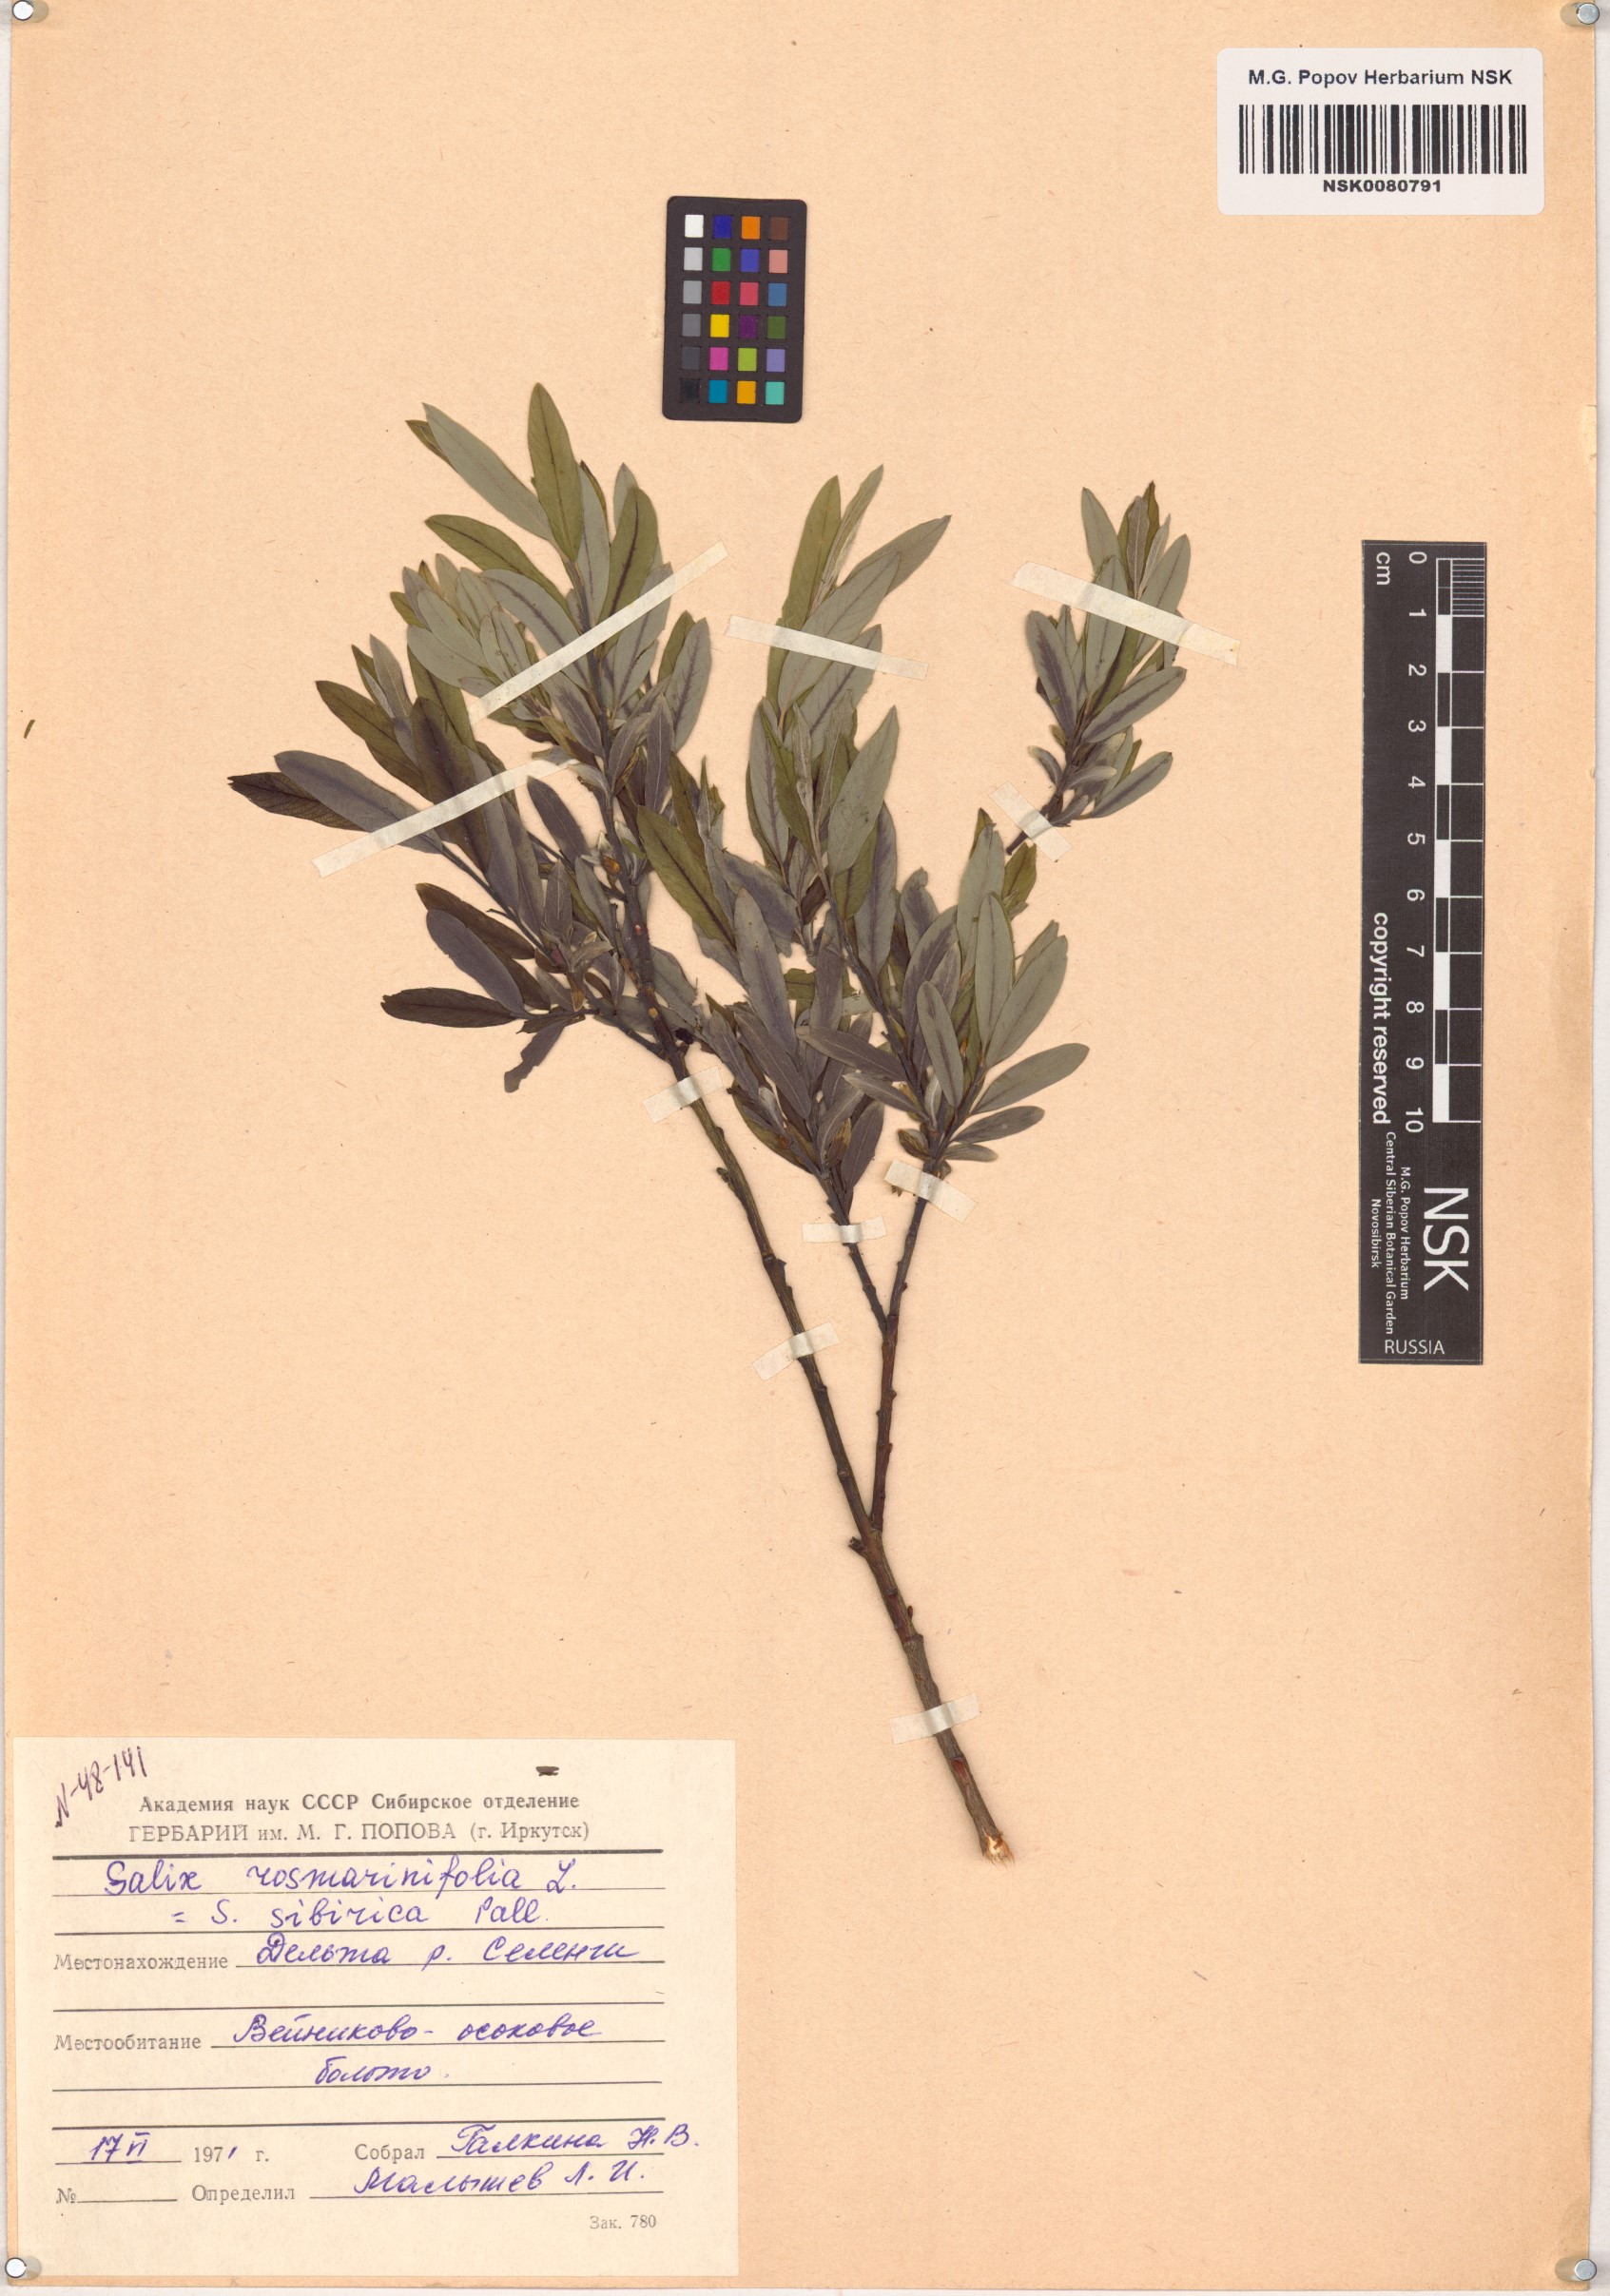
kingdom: Plantae
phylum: Tracheophyta
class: Magnoliopsida
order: Malpighiales
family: Salicaceae
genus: Salix
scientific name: Salix rosmarinifolia
